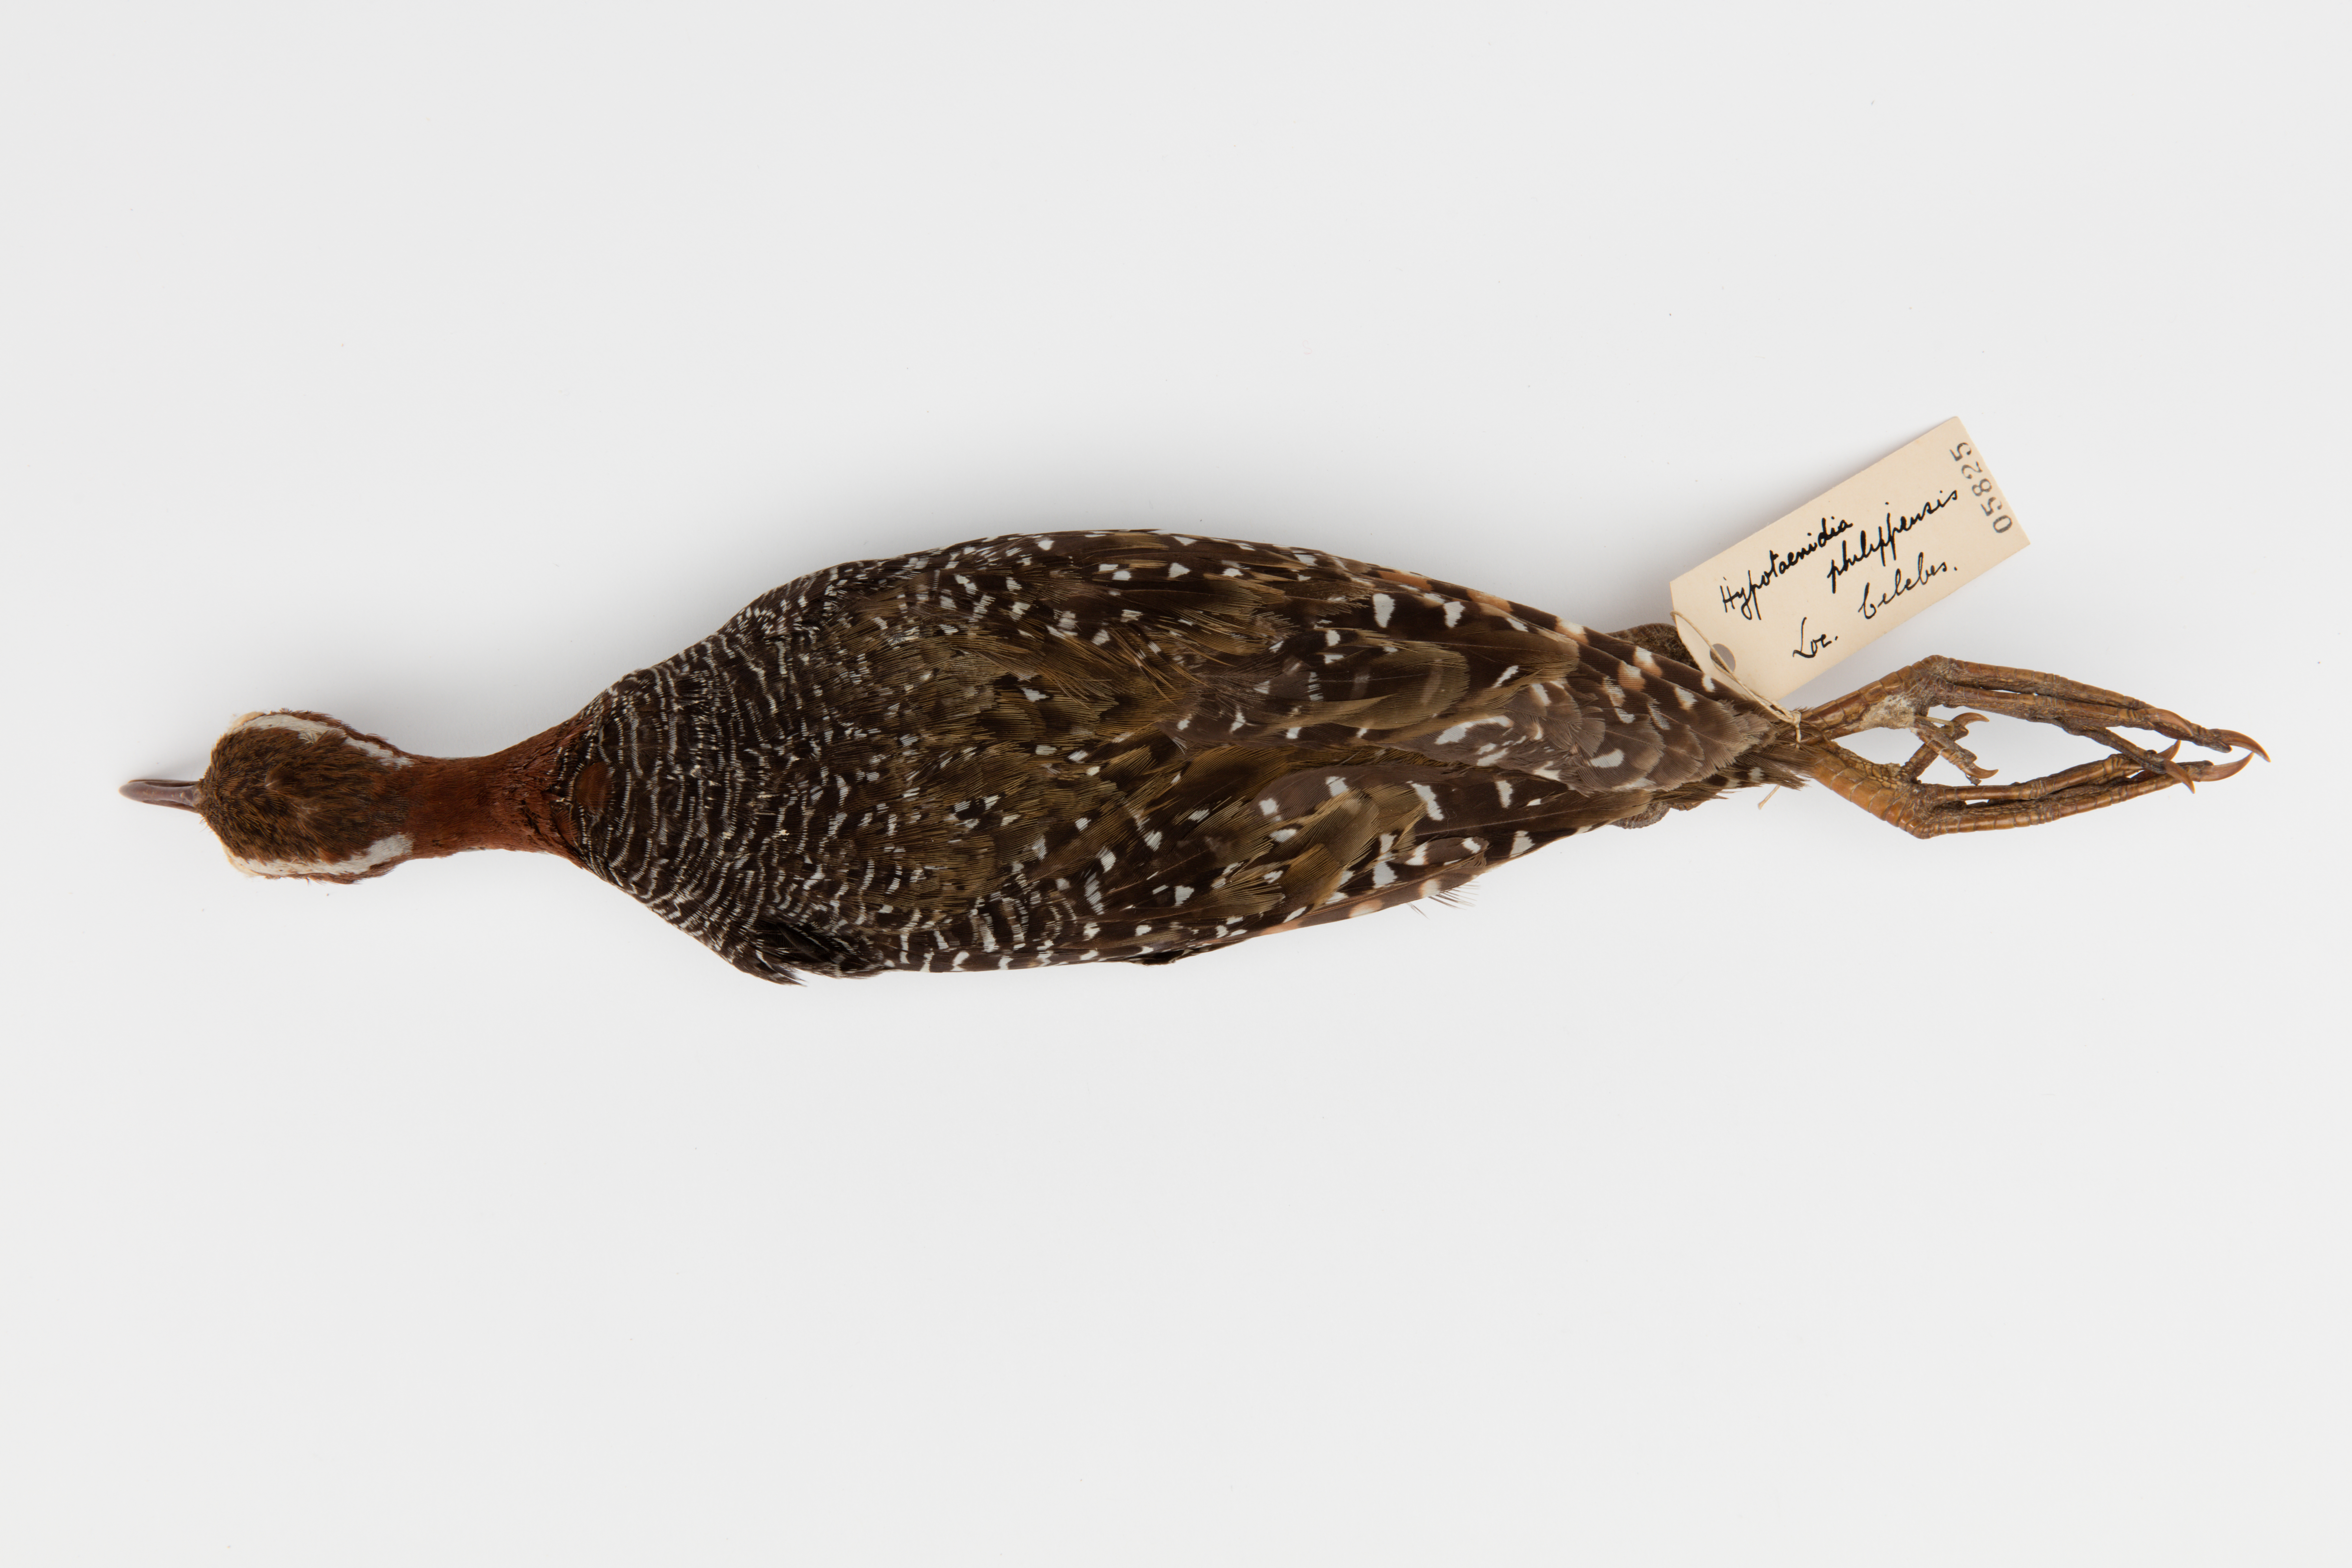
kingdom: Animalia
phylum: Chordata
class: Aves
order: Gruiformes
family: Rallidae
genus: Gallirallus
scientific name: Gallirallus philippensis
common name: Buff-banded rail
